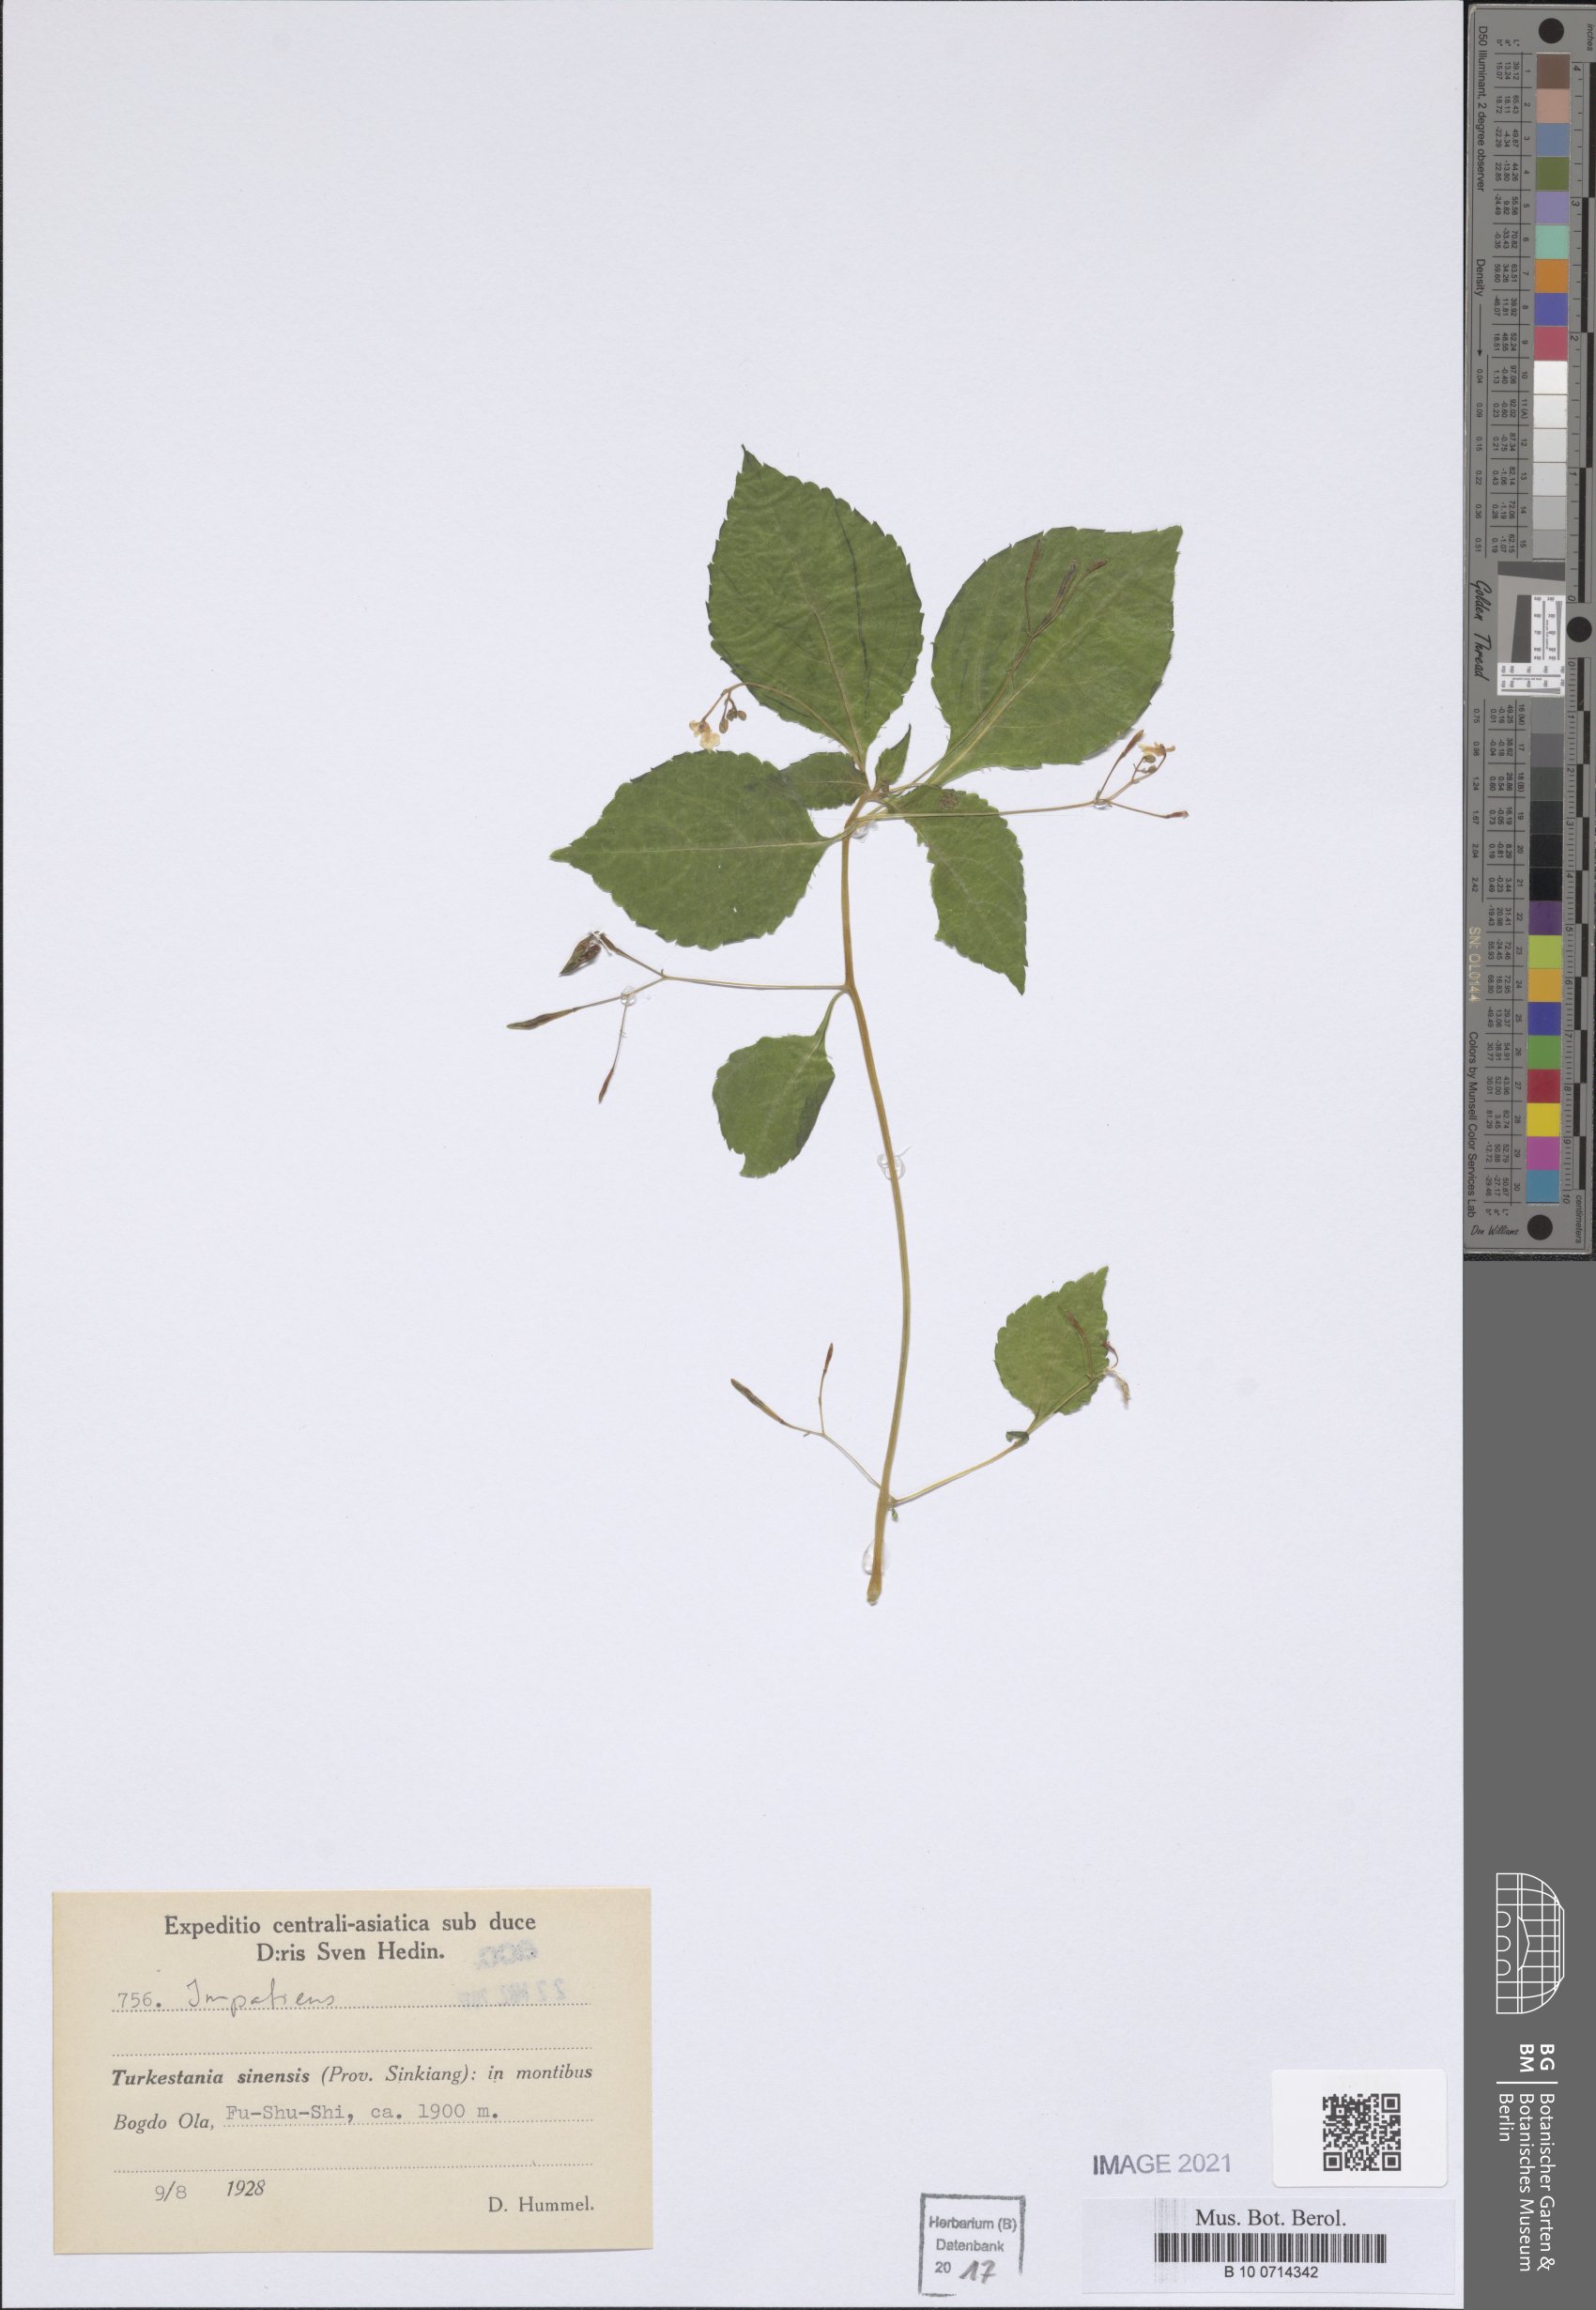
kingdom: Plantae
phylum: Tracheophyta
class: Magnoliopsida
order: Ericales
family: Balsaminaceae
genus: Impatiens
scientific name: Impatiens
